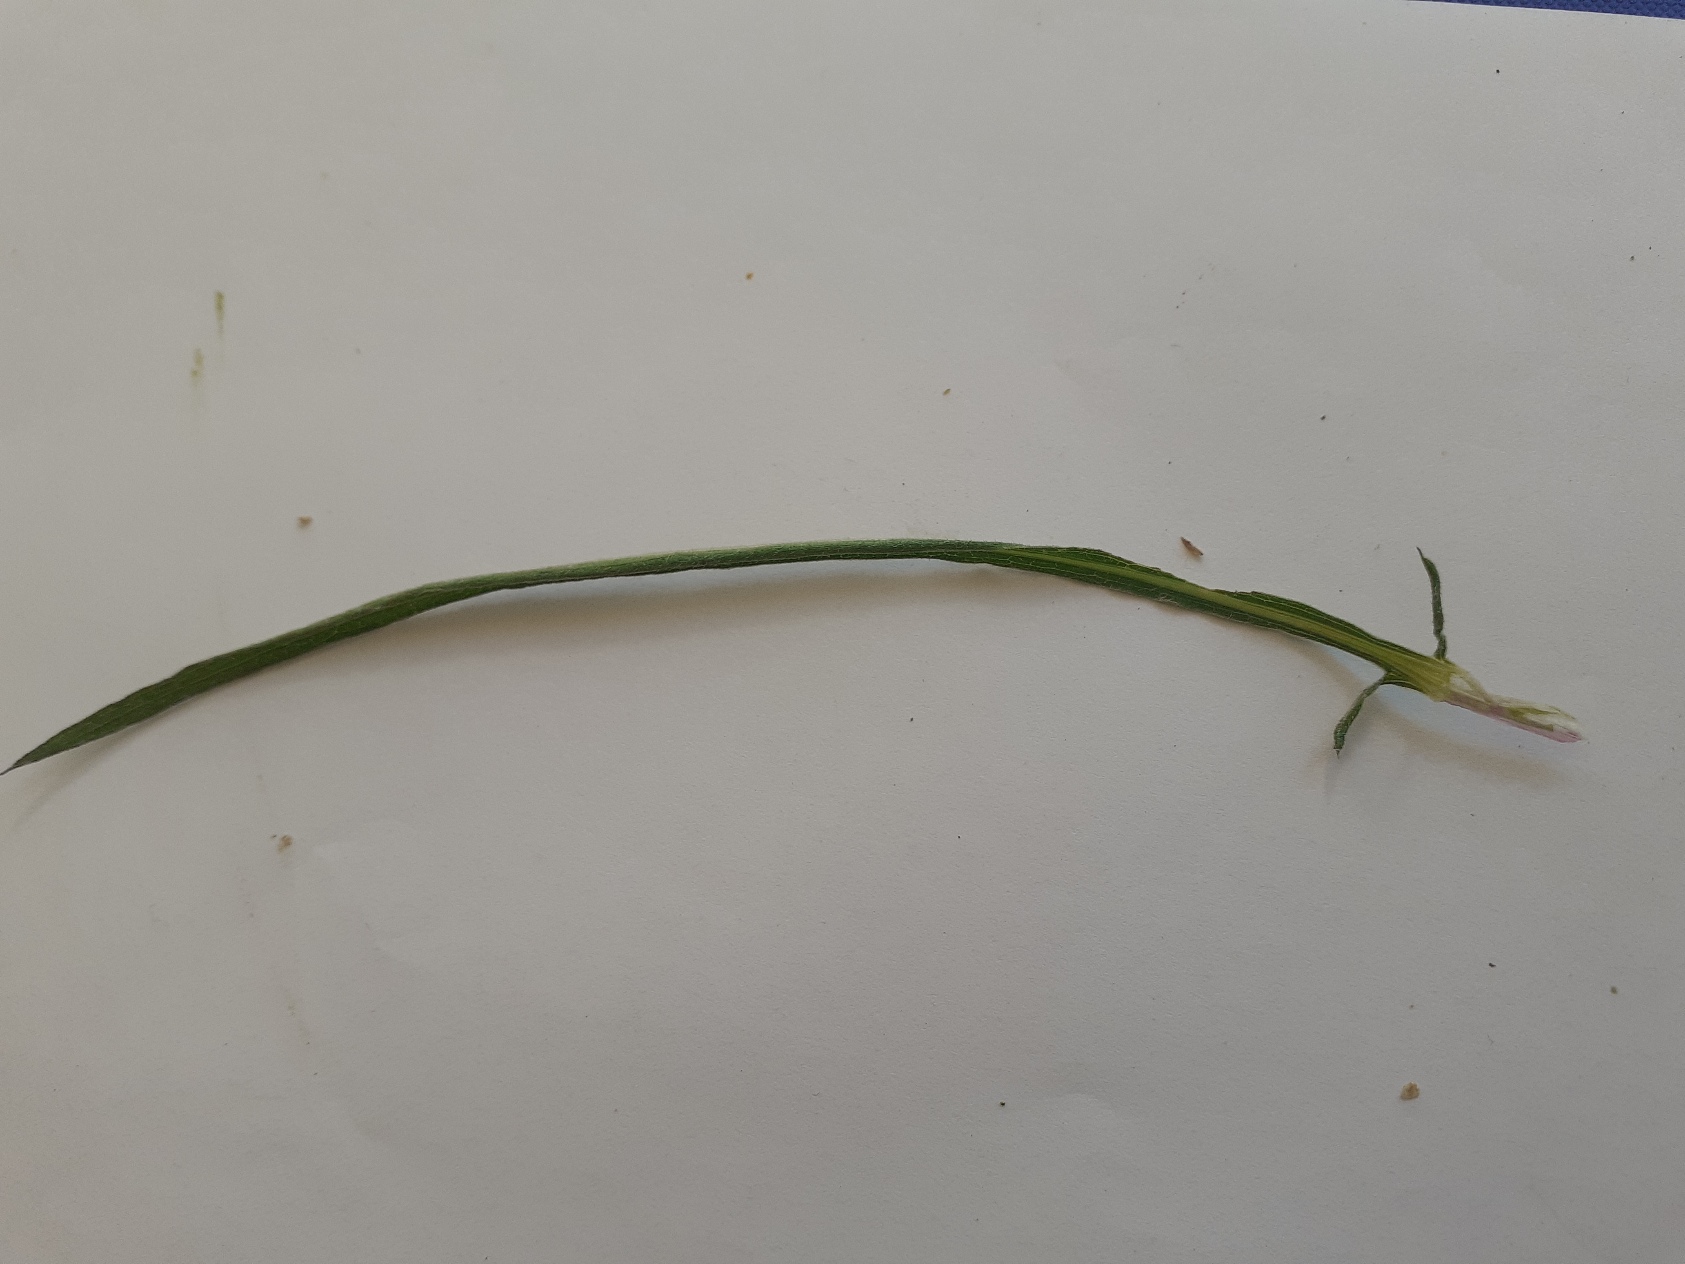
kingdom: Plantae
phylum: Tracheophyta
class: Magnoliopsida
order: Asterales
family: Asteraceae
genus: Centaurea
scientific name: Centaurea jacea
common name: Almindelig knopurt
